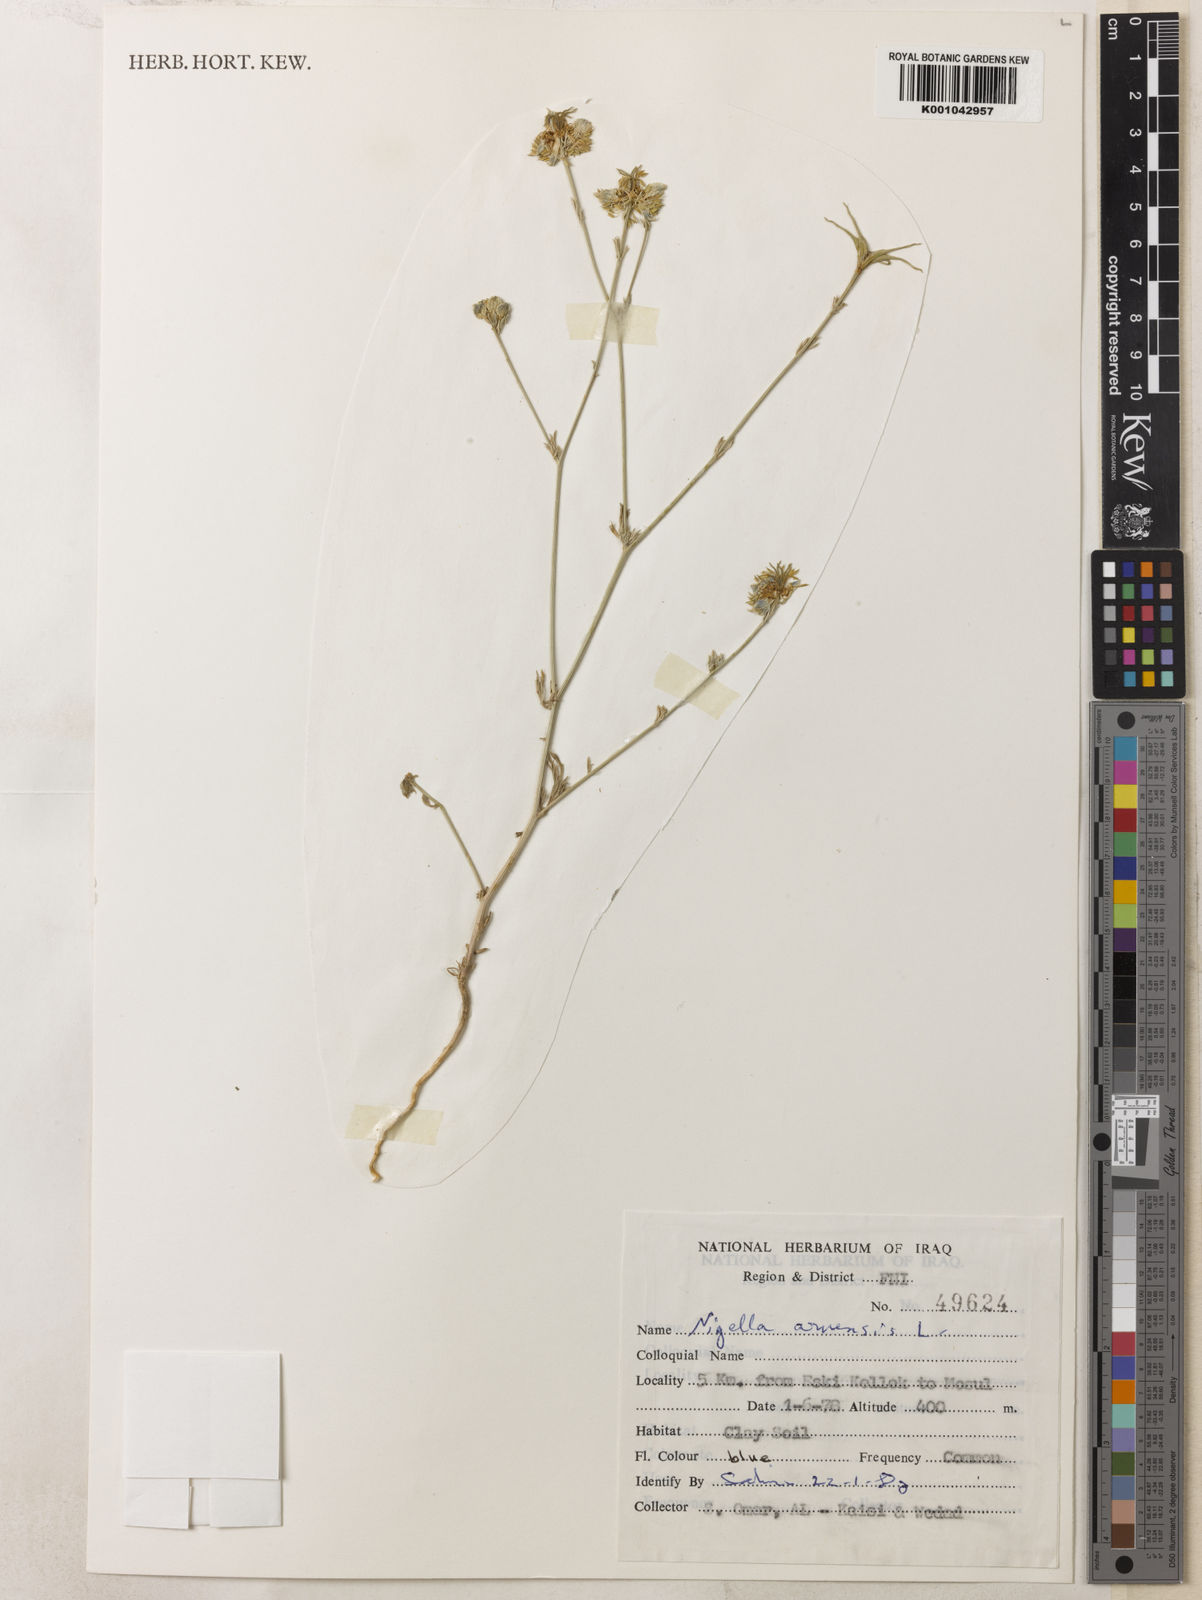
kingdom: Plantae
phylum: Tracheophyta
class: Magnoliopsida
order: Ranunculales
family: Ranunculaceae
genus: Nigella
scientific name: Nigella arvensis
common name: Wild fennel-flower
